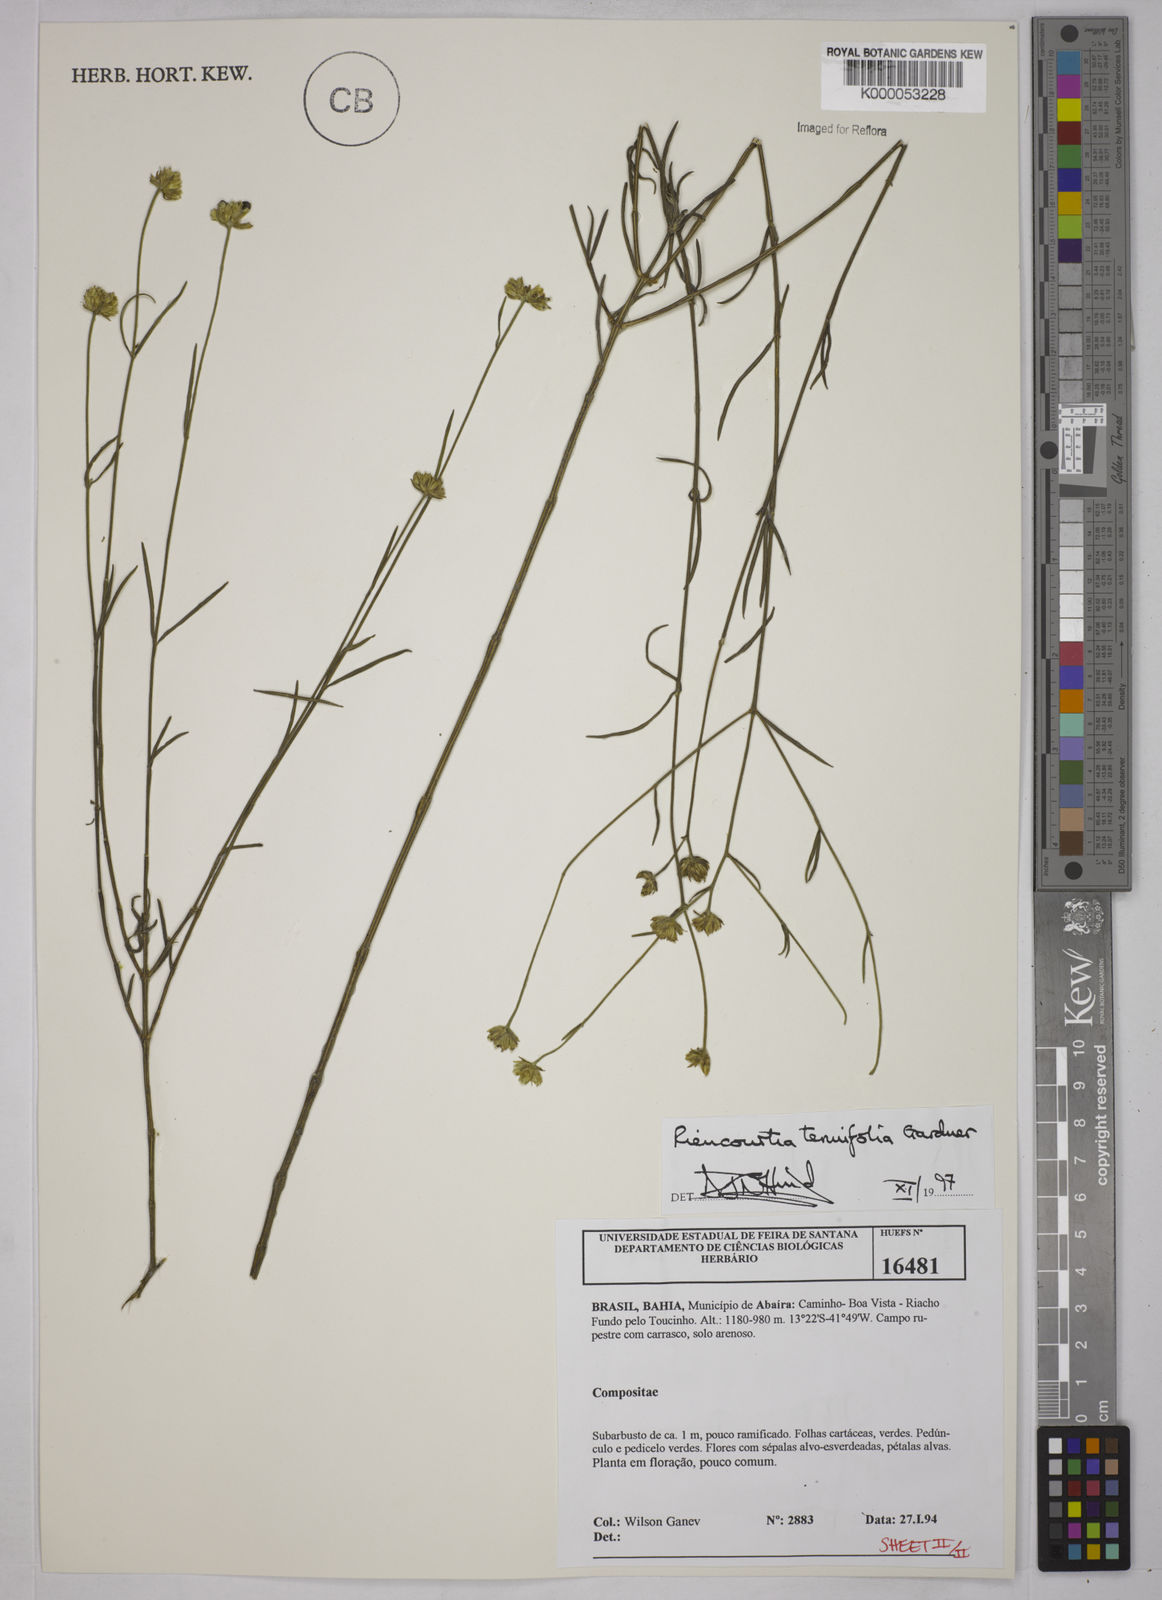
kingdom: Plantae
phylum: Tracheophyta
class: Magnoliopsida
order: Asterales
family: Asteraceae
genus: Riencourtia
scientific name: Riencourtia tenuifolia
